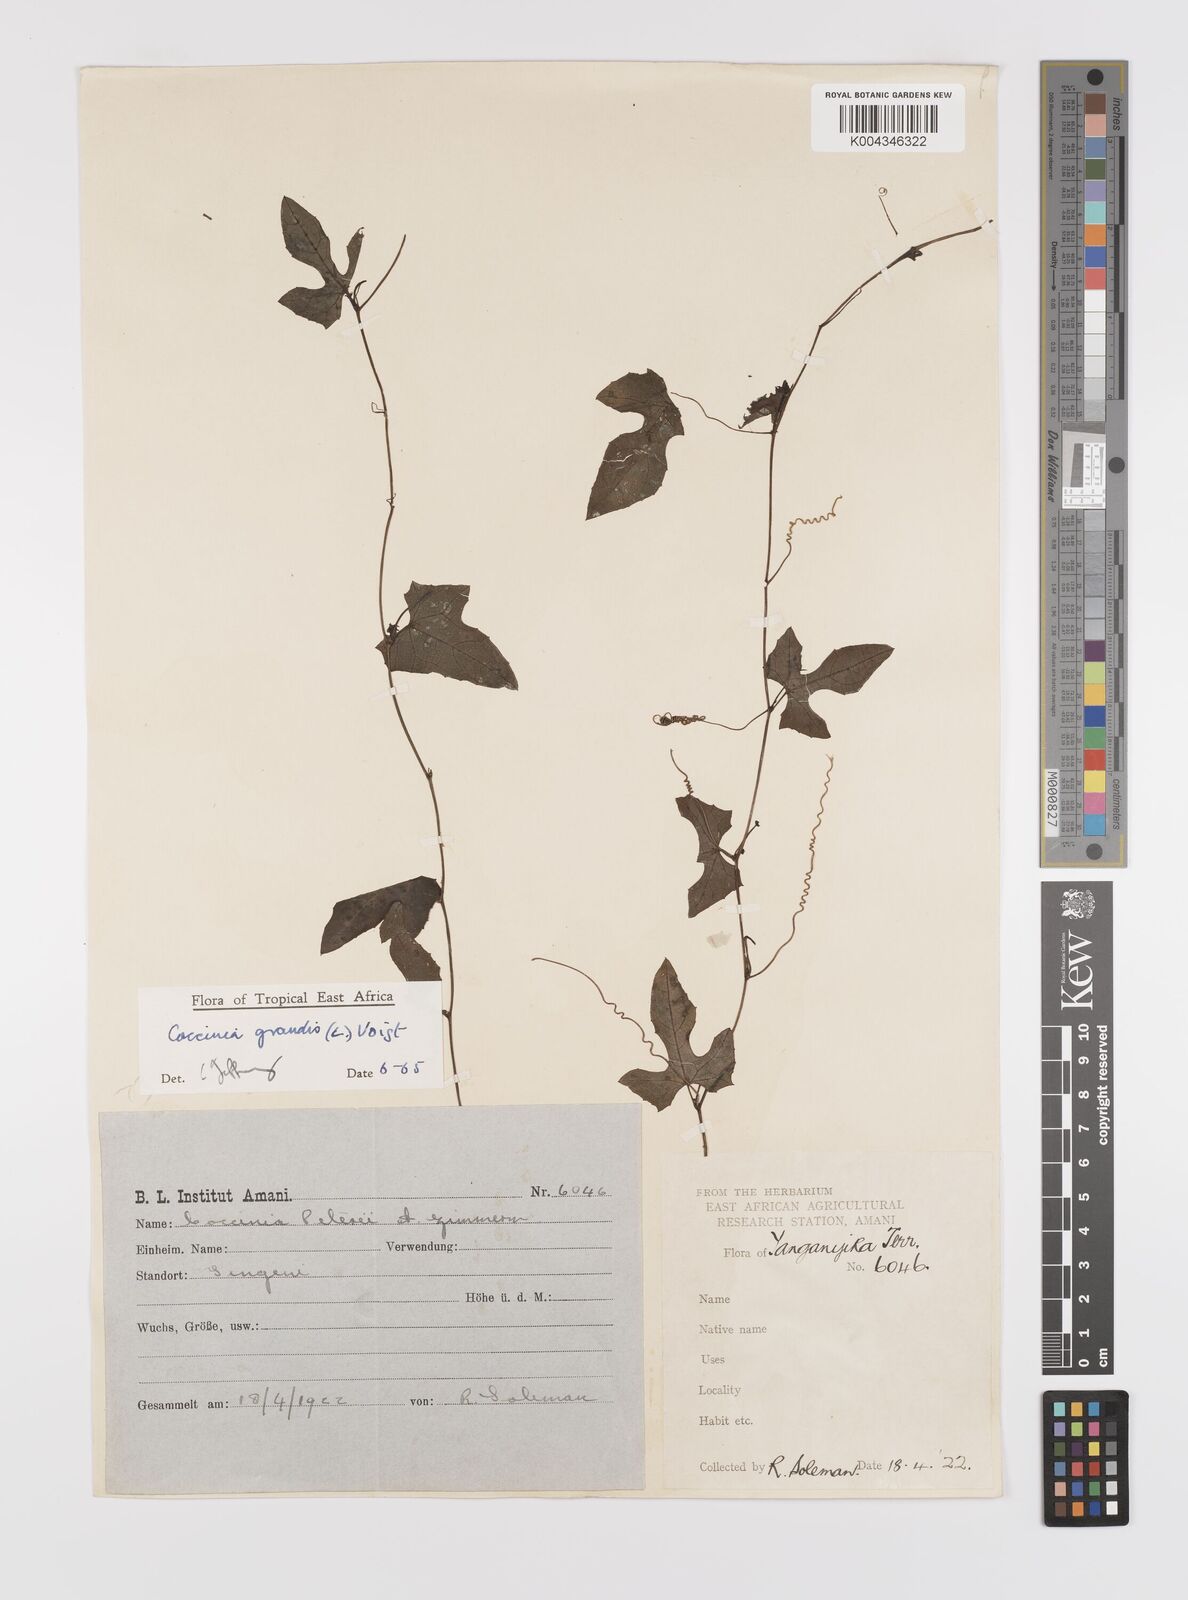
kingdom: Plantae
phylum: Tracheophyta
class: Magnoliopsida
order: Cucurbitales
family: Cucurbitaceae
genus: Coccinia
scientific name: Coccinia grandis
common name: Ivy gourd
